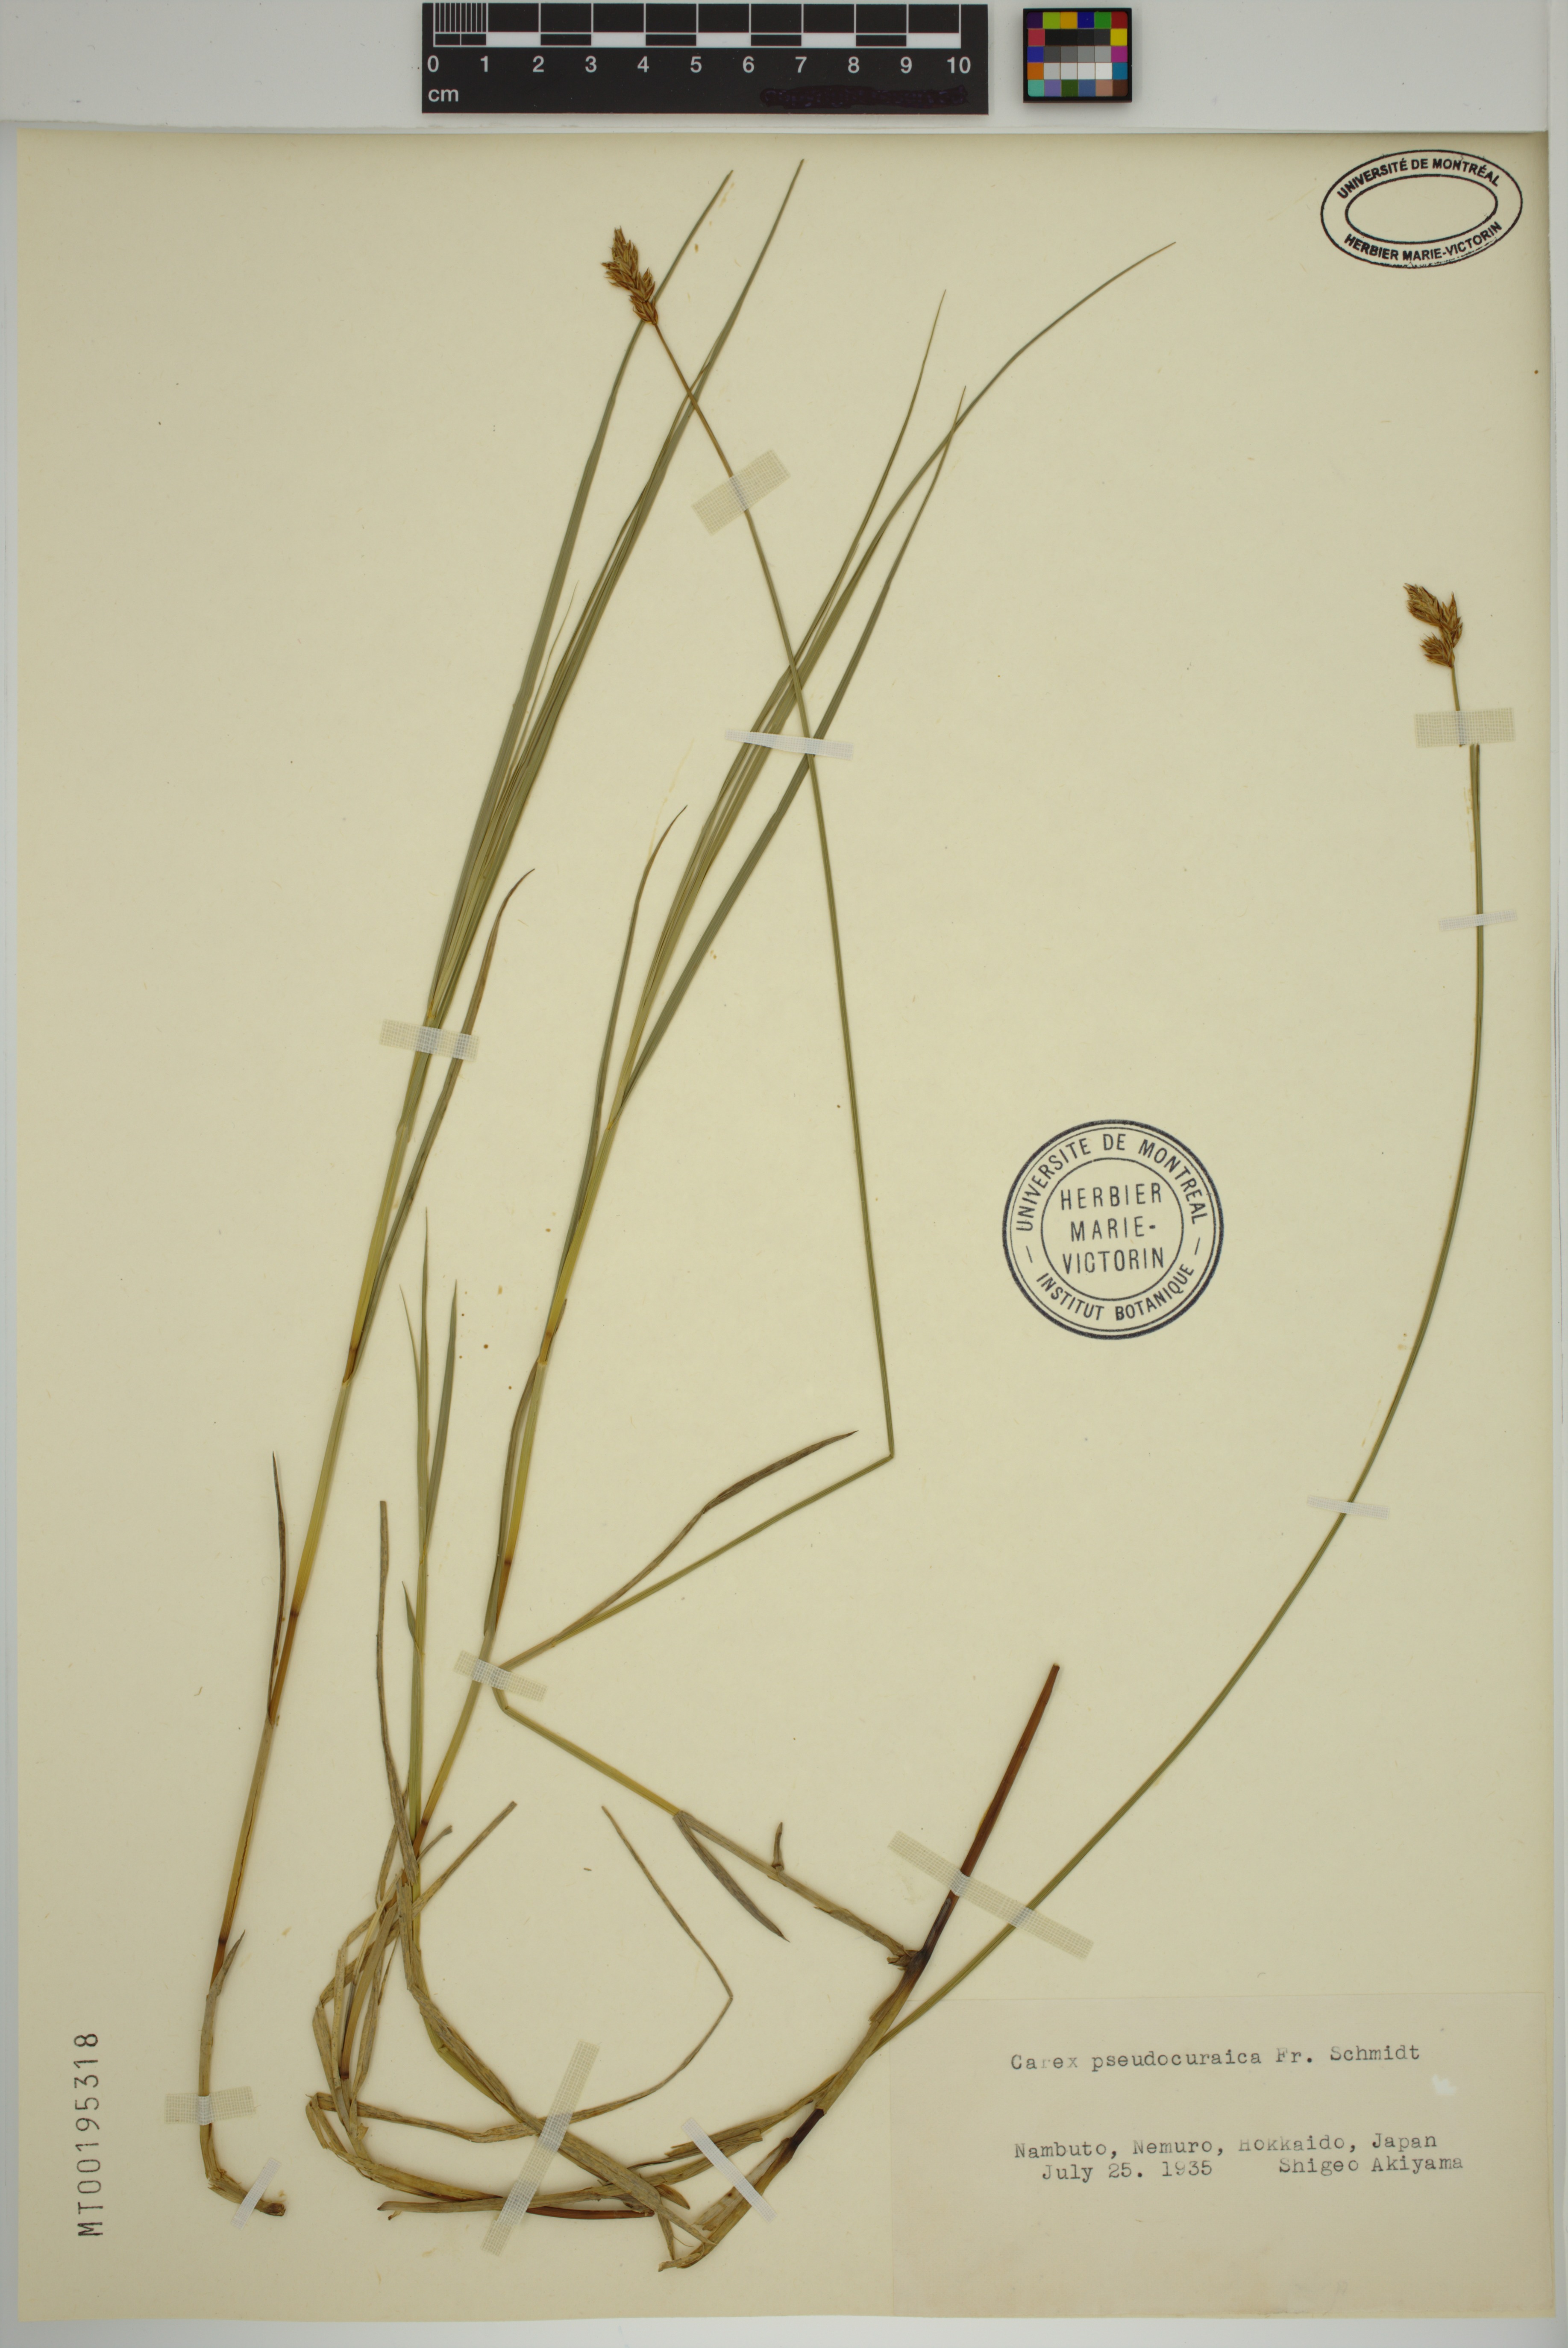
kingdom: Plantae
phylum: Tracheophyta
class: Liliopsida
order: Poales
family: Cyperaceae
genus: Carex
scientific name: Carex pseudocuraica
